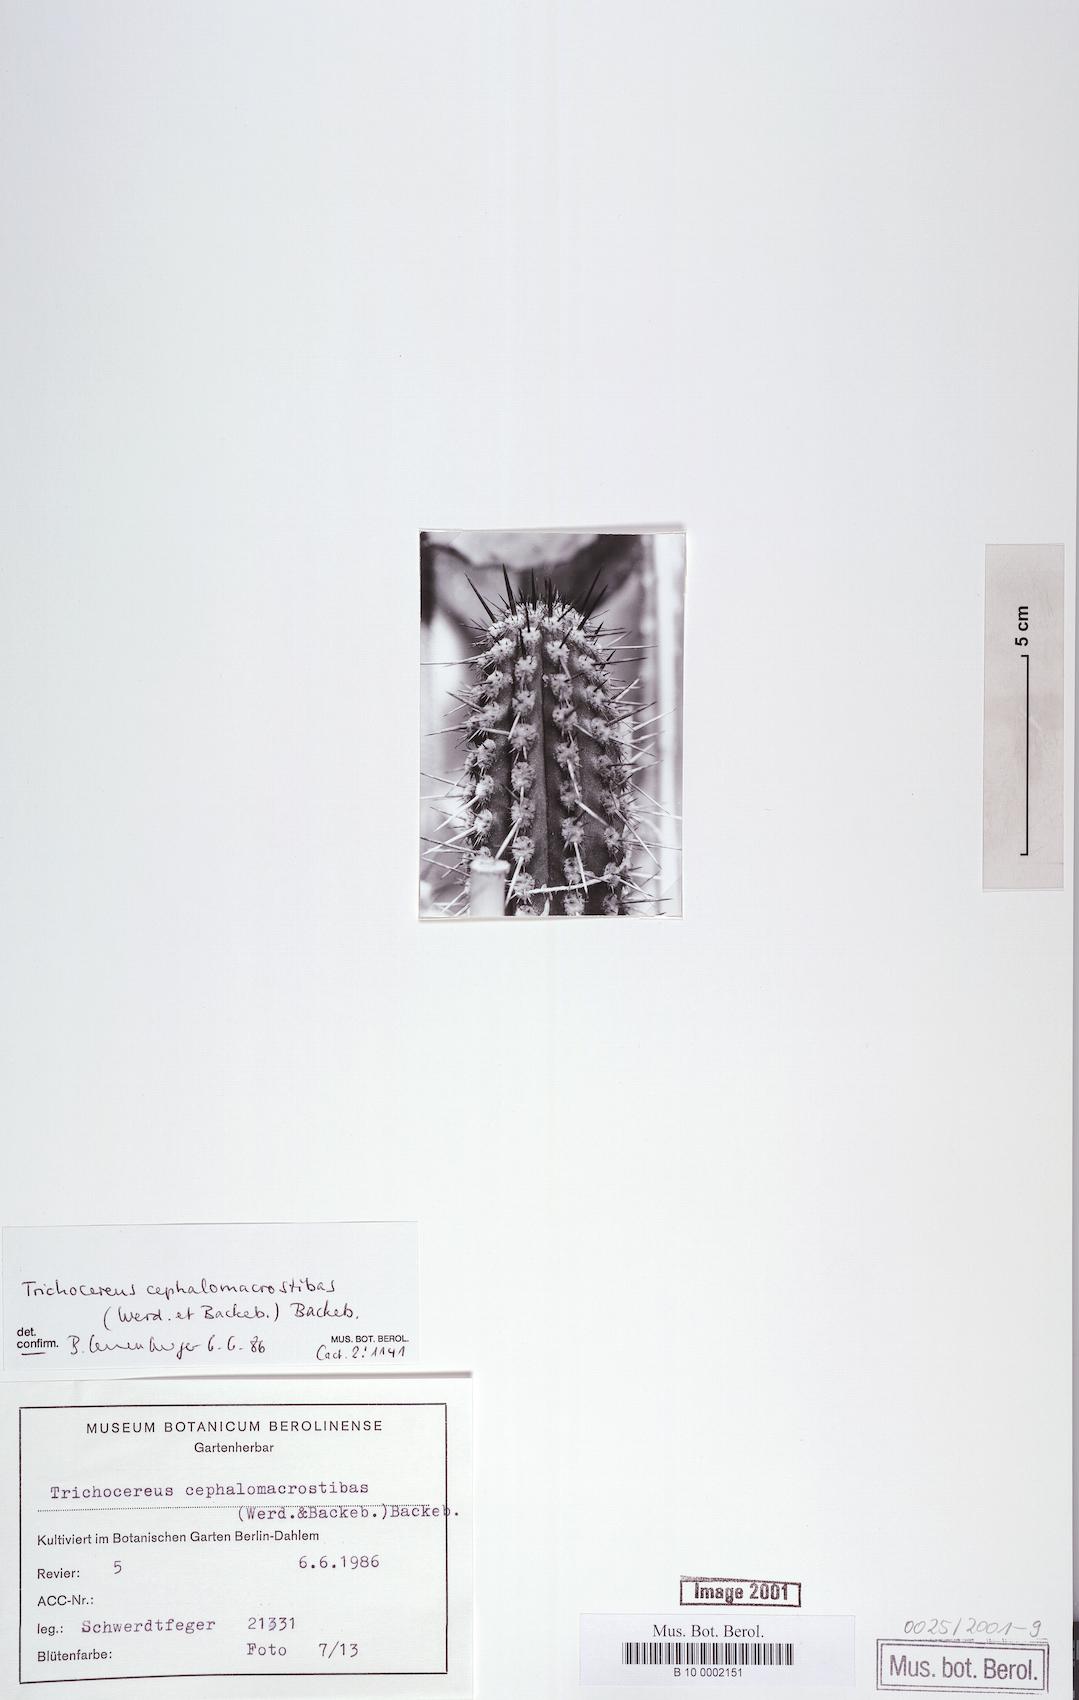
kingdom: Plantae
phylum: Tracheophyta
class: Magnoliopsida
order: Caryophyllales
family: Cactaceae
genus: Weberbauerocereus
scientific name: Weberbauerocereus cephalomacrostibas
